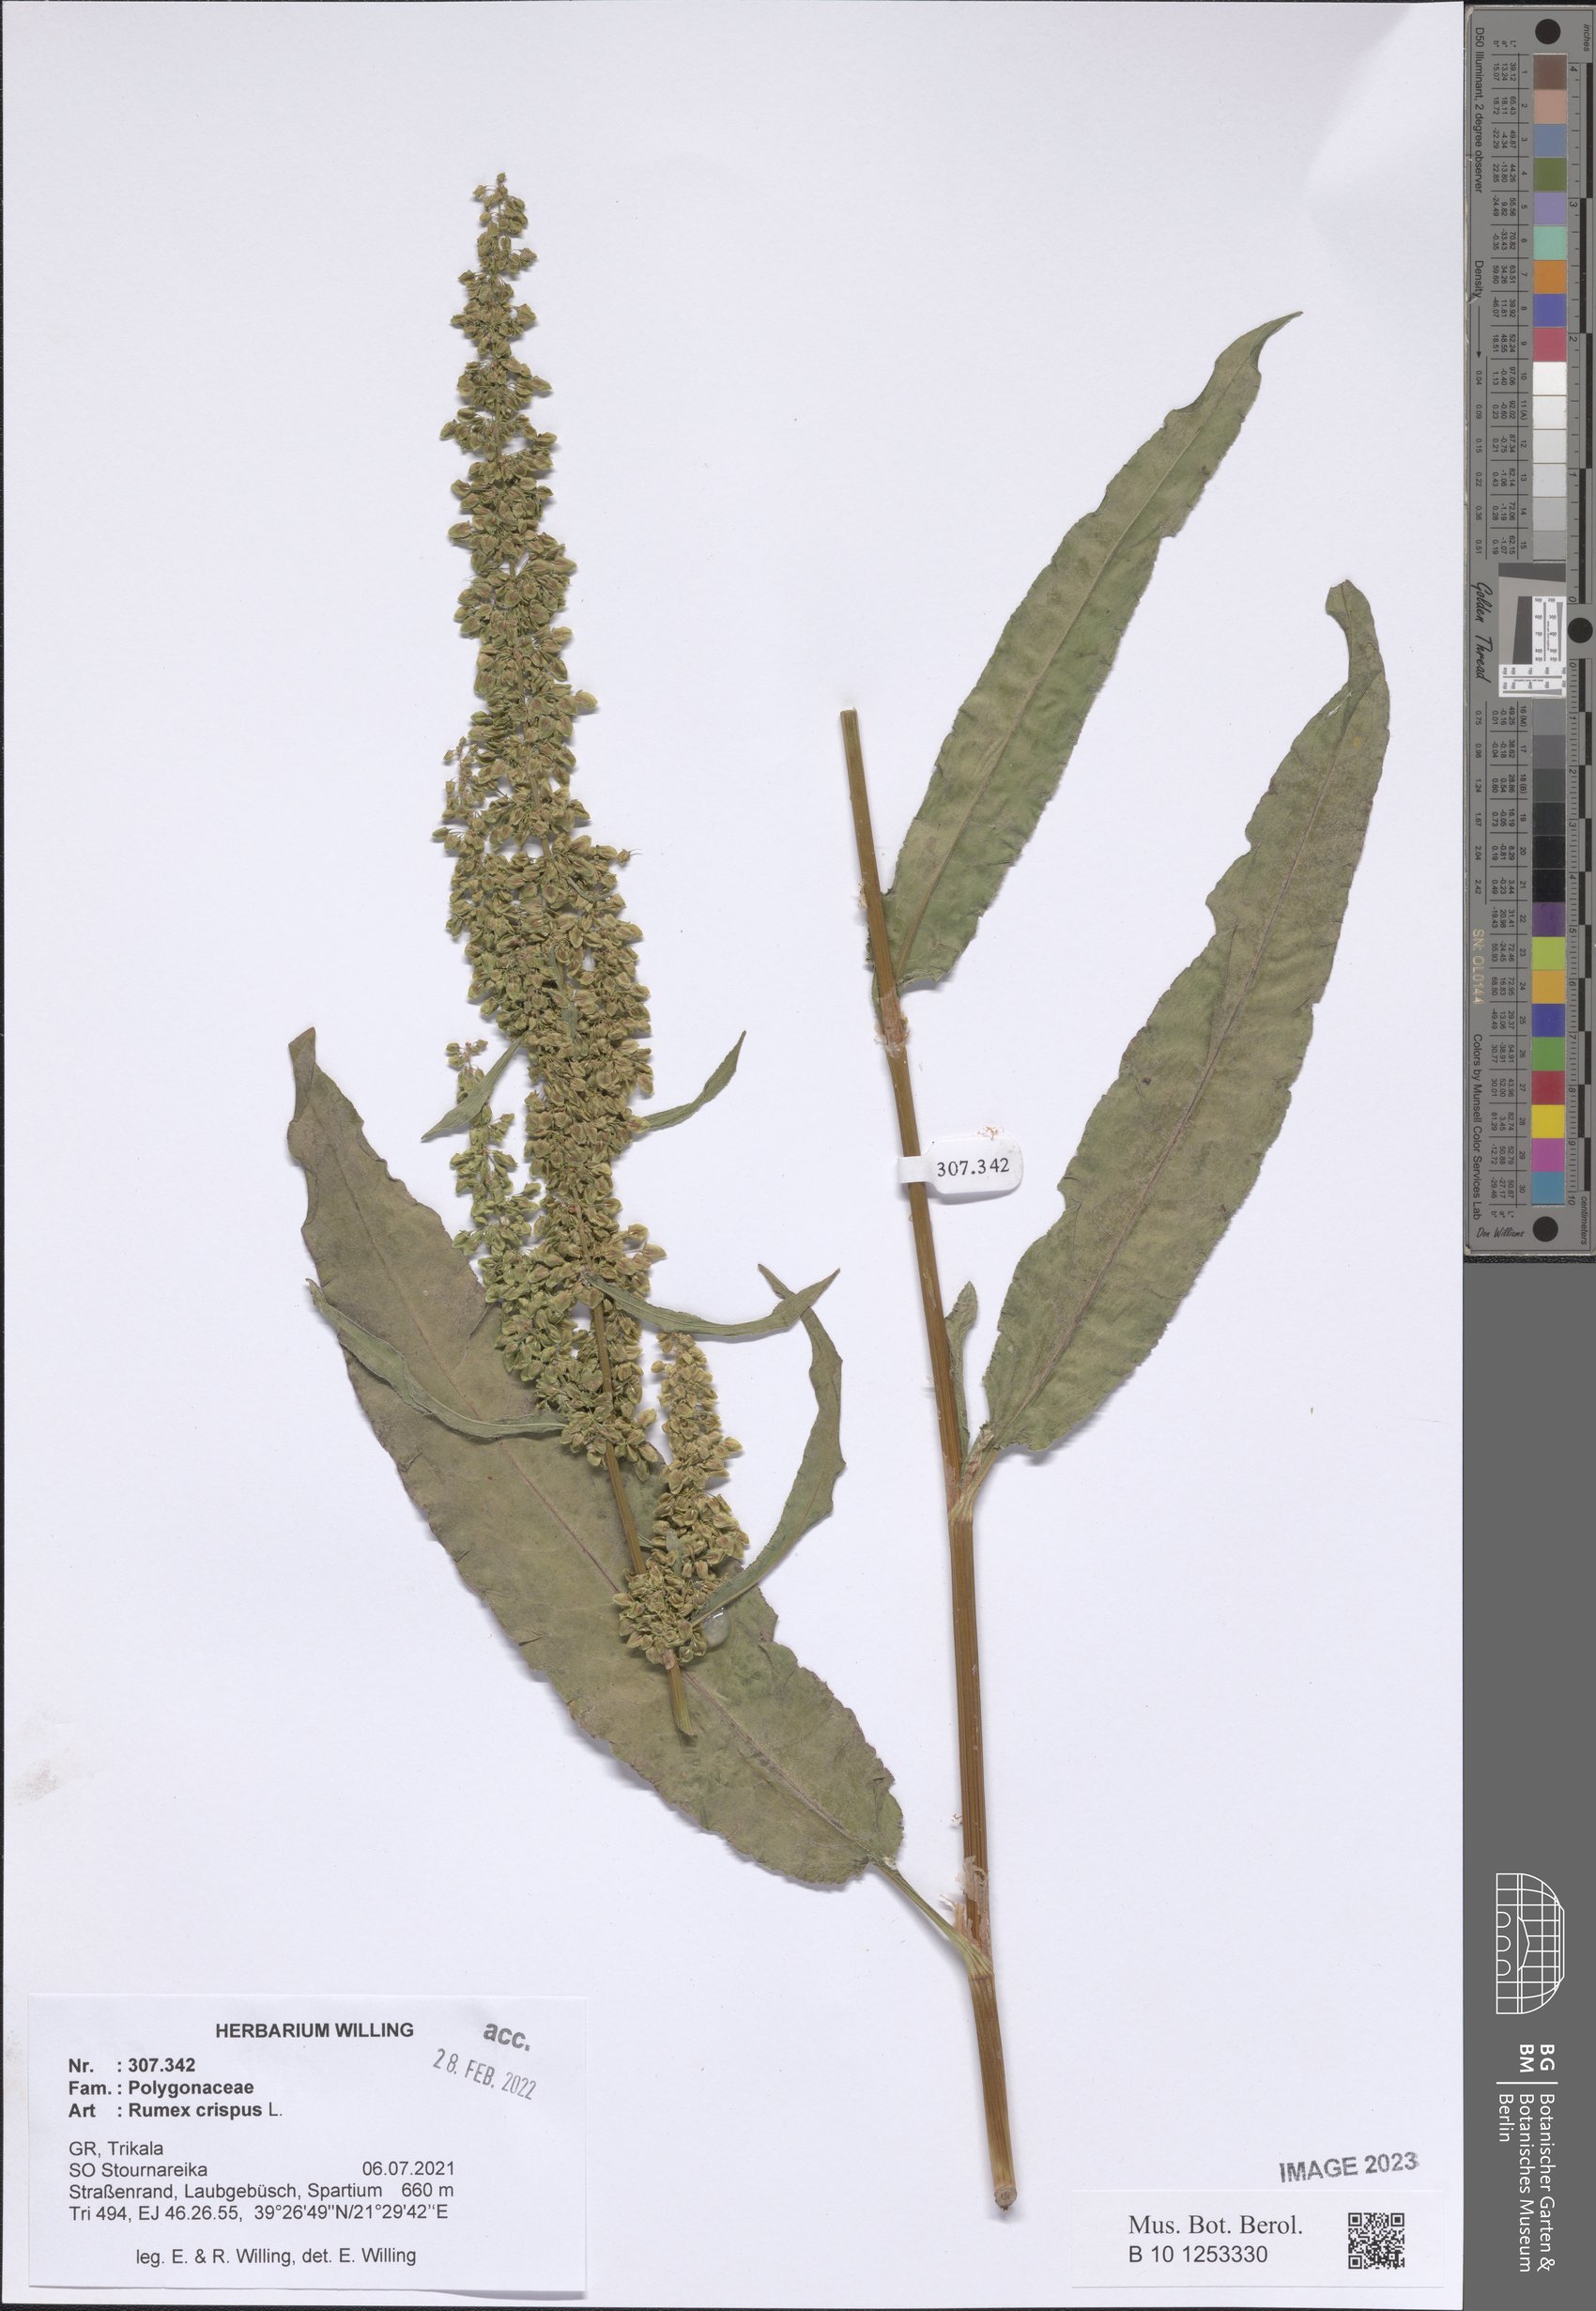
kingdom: Plantae
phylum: Tracheophyta
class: Magnoliopsida
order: Caryophyllales
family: Polygonaceae
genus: Rumex
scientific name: Rumex crispus
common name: Curled dock
